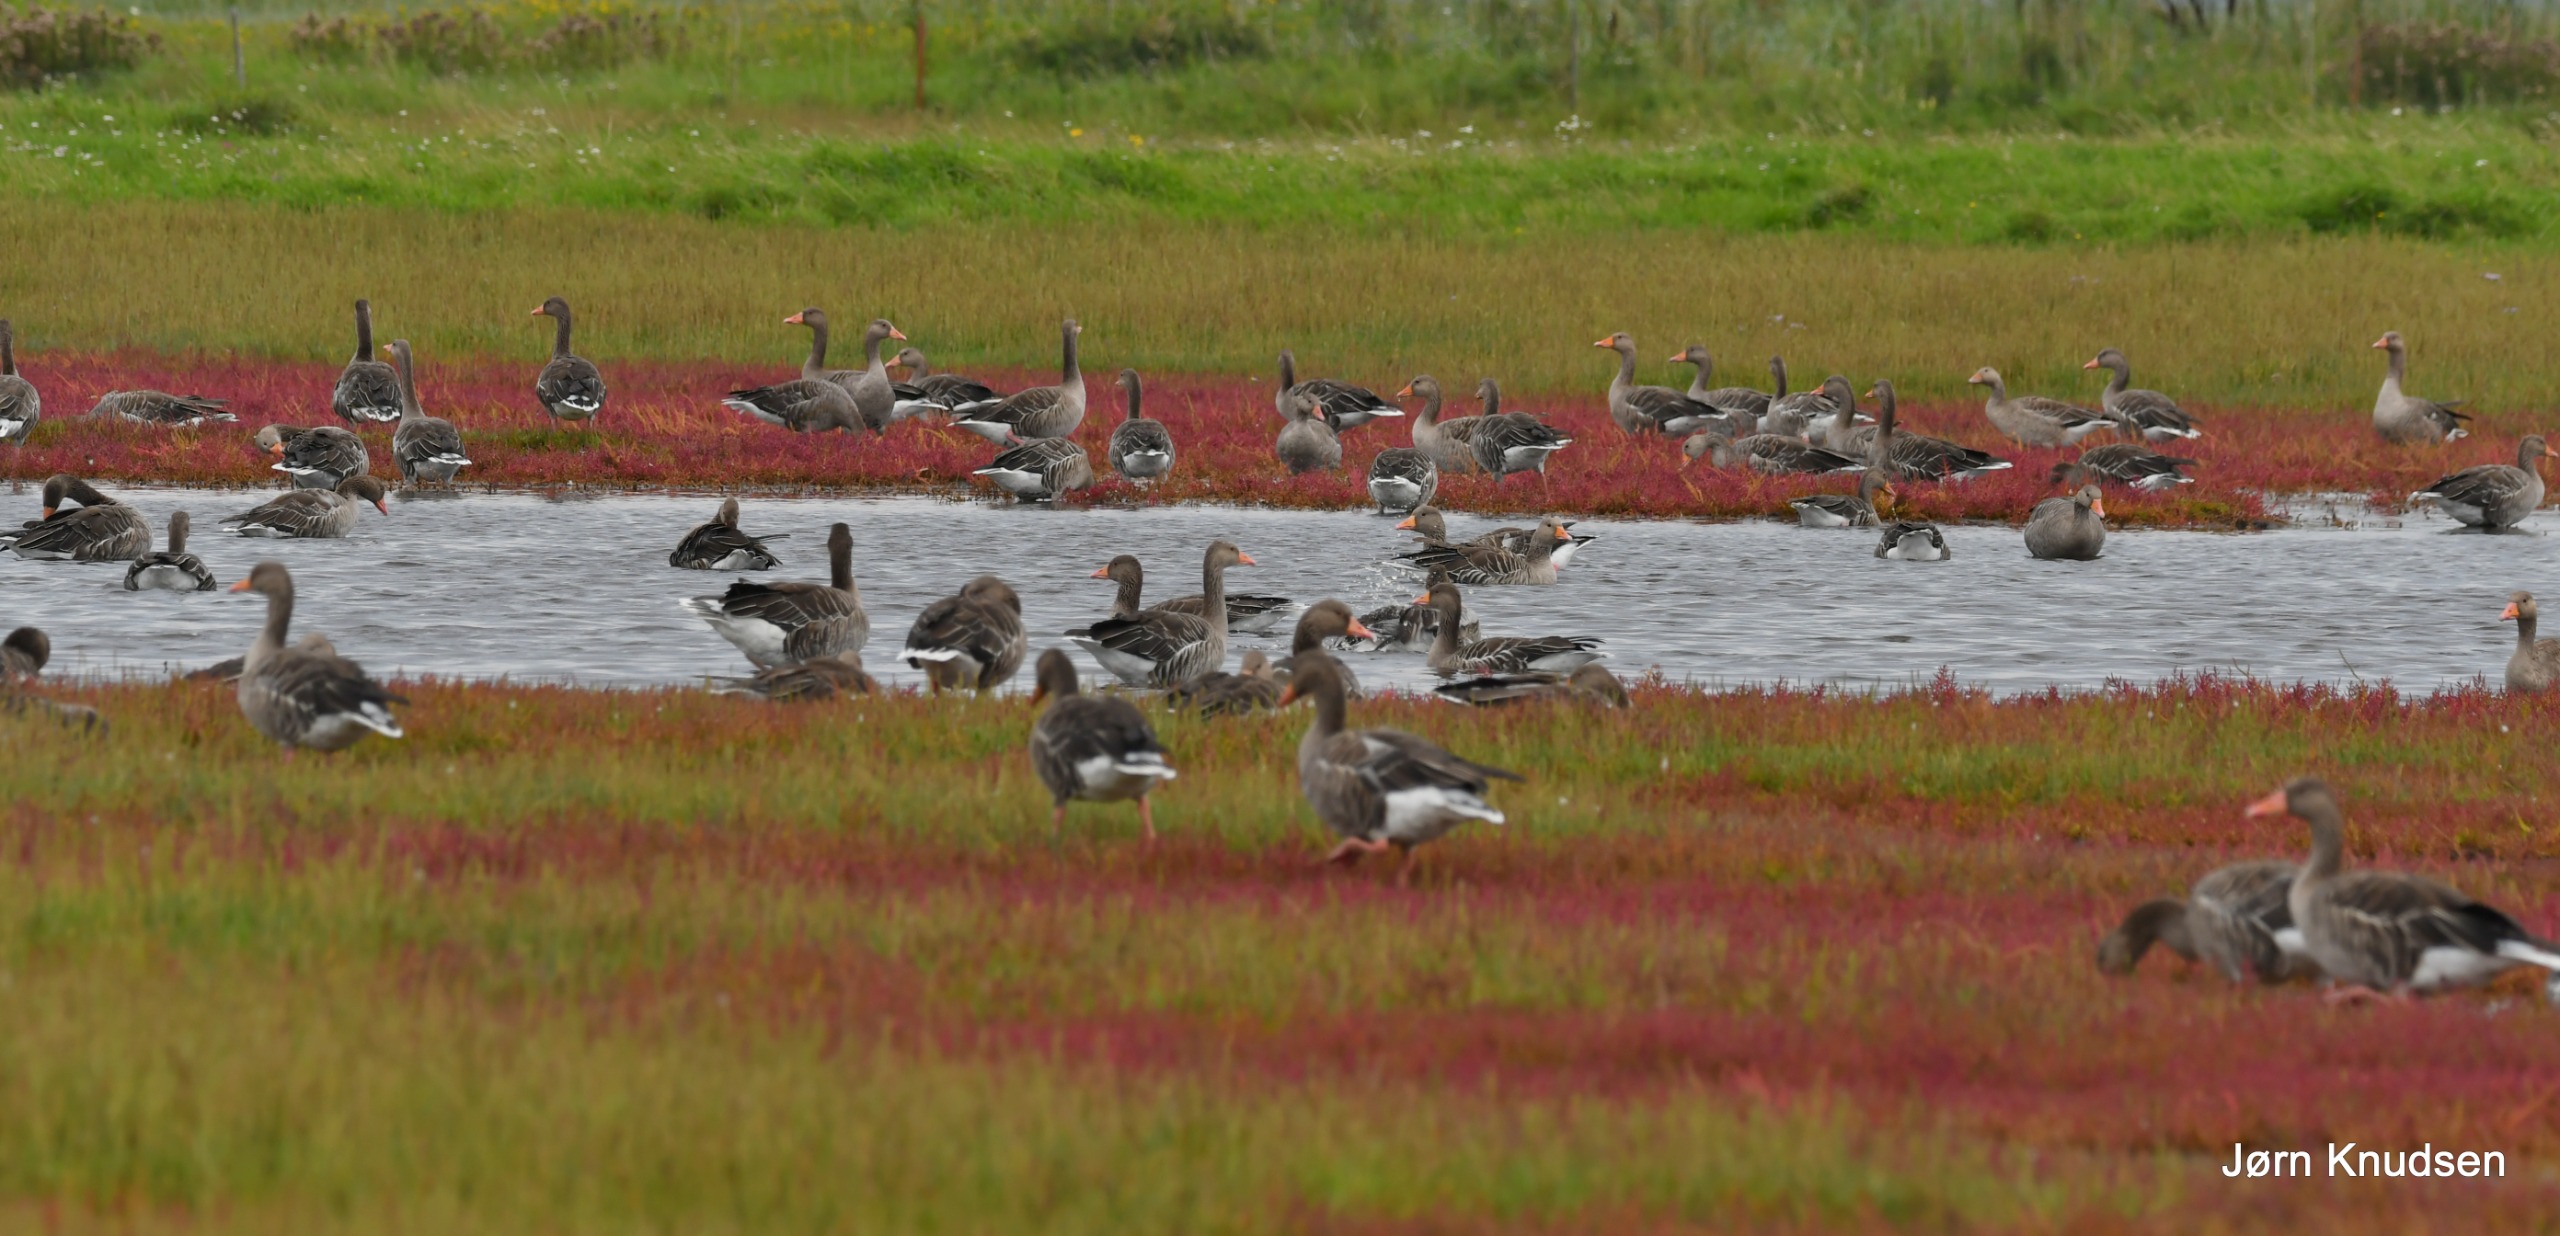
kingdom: Animalia
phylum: Chordata
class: Aves
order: Anseriformes
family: Anatidae
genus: Anser
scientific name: Anser anser
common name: Grågås
